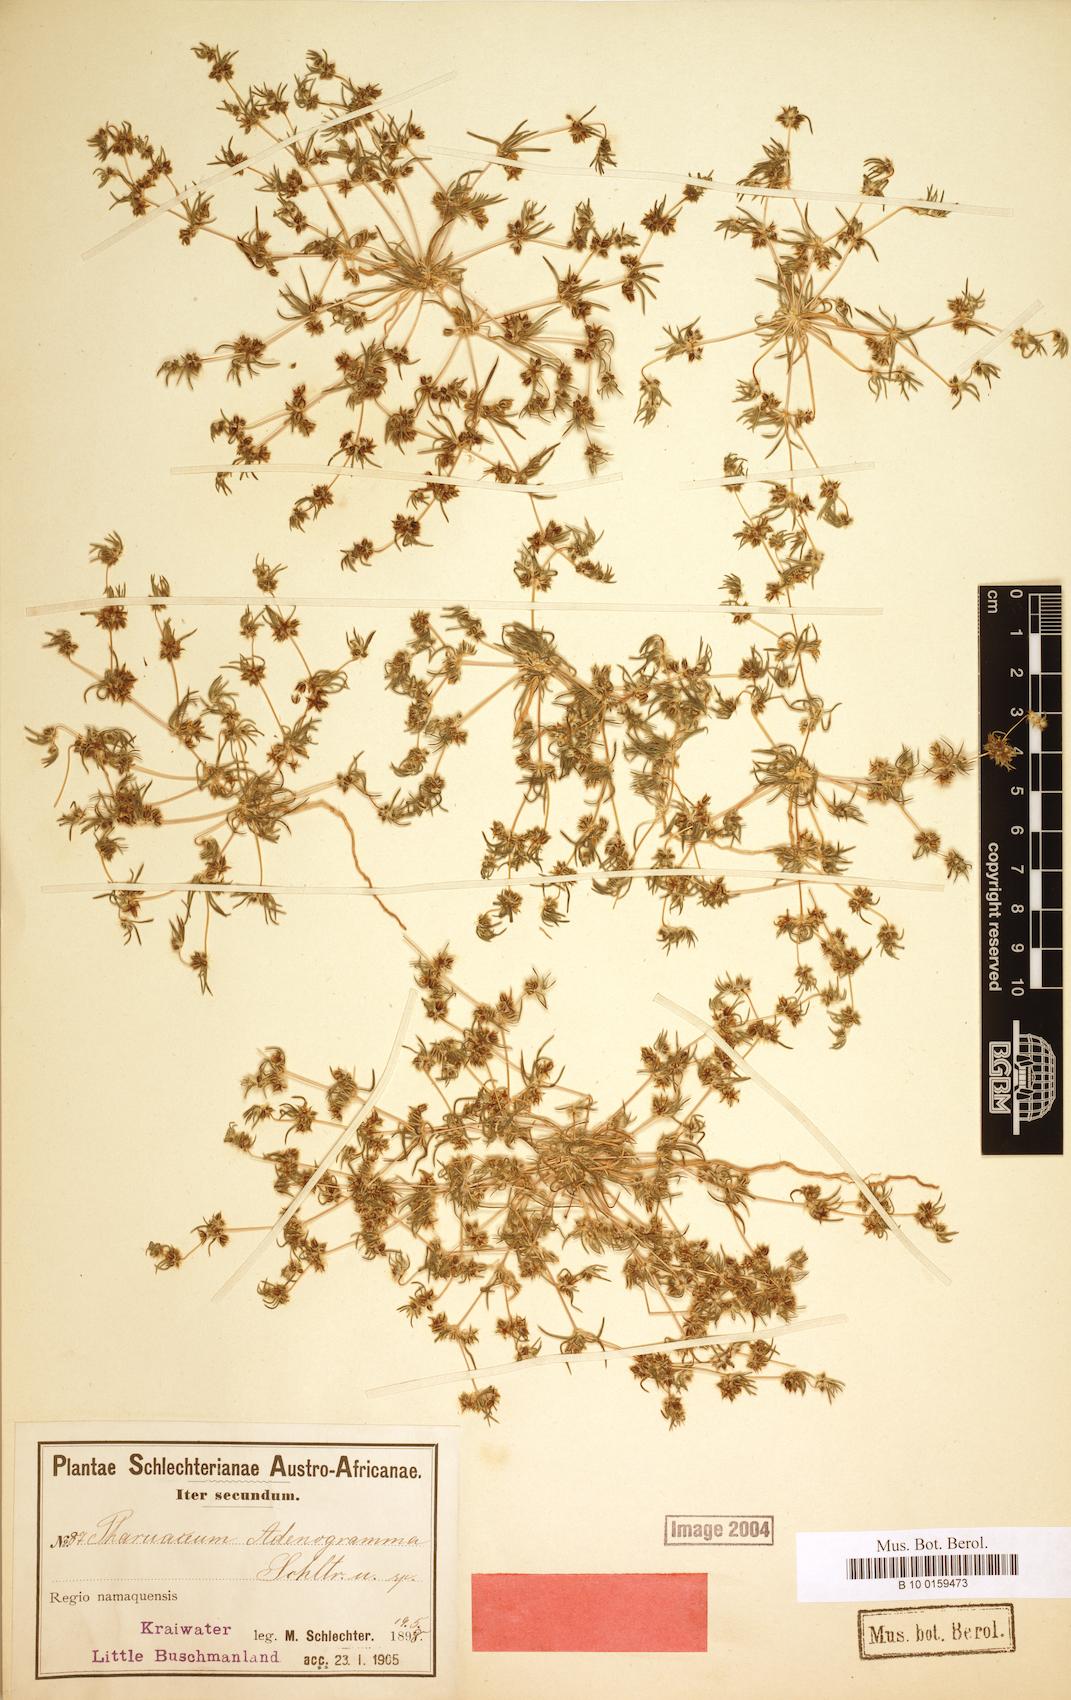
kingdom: Plantae
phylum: Tracheophyta
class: Magnoliopsida
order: Caryophyllales
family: Molluginaceae
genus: Pharnaceum
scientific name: Pharnaceum
